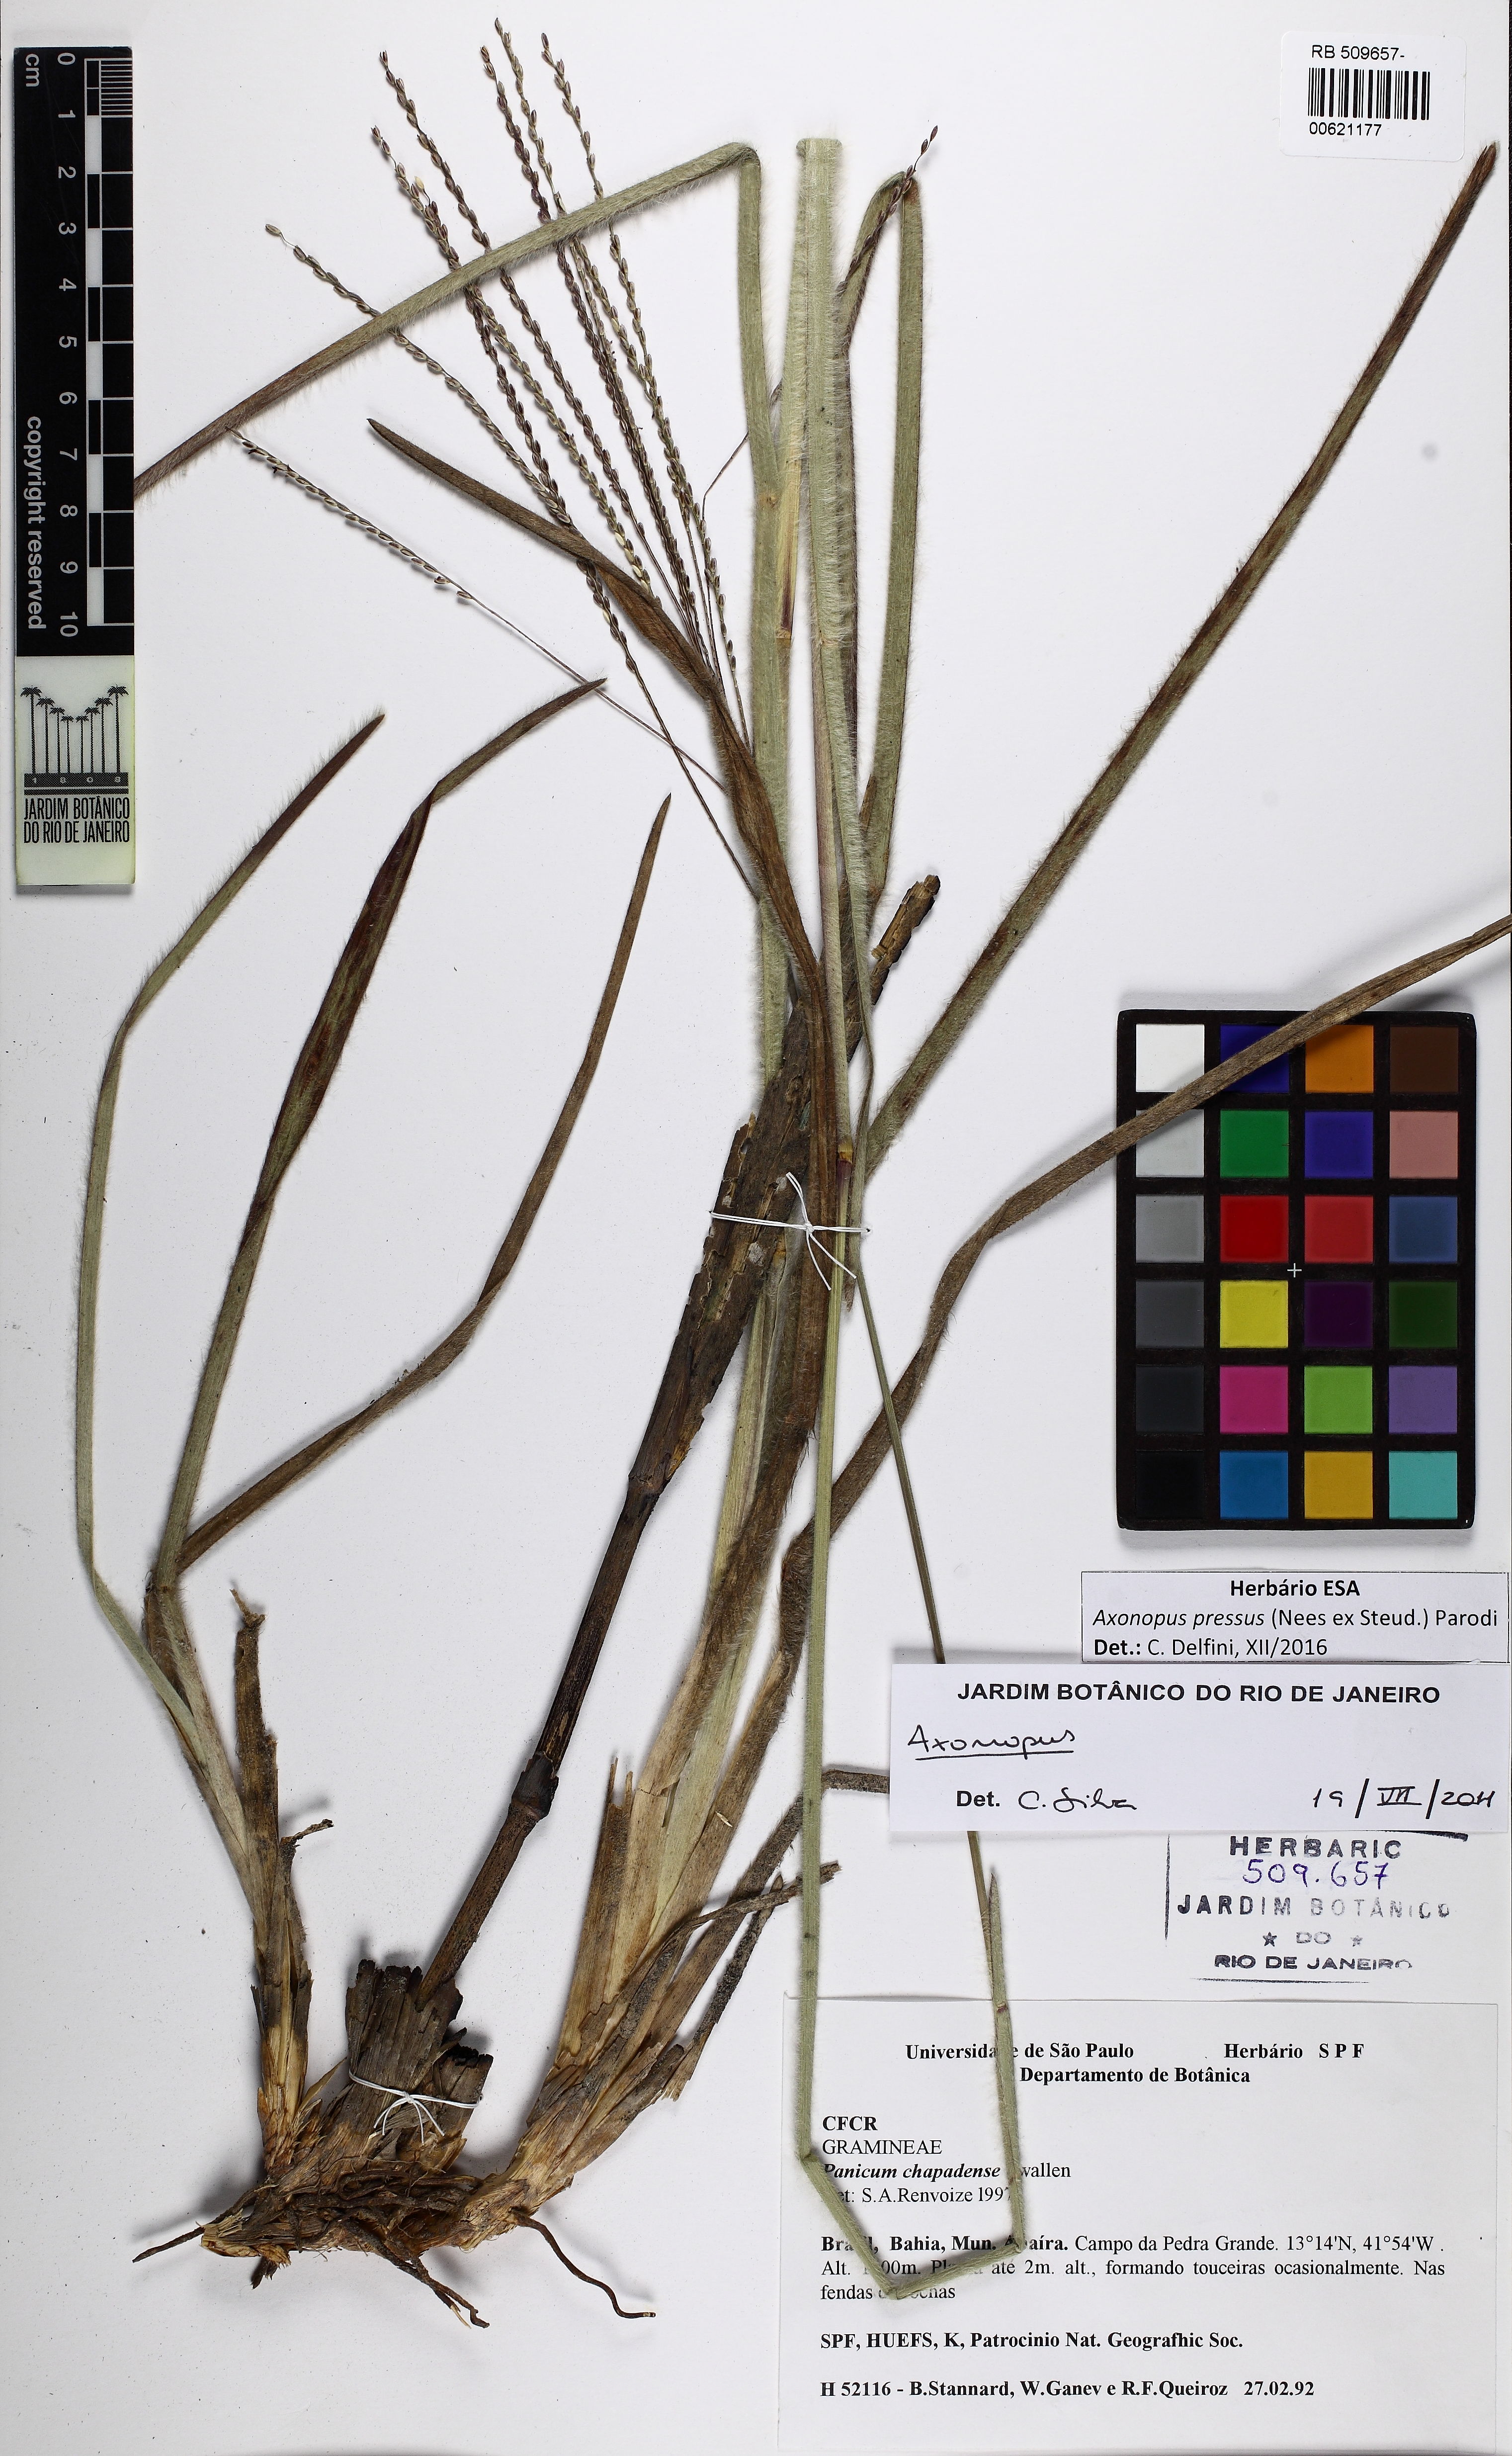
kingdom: Plantae
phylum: Tracheophyta
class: Liliopsida
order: Poales
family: Poaceae
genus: Axonopus
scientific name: Axonopus pressus
